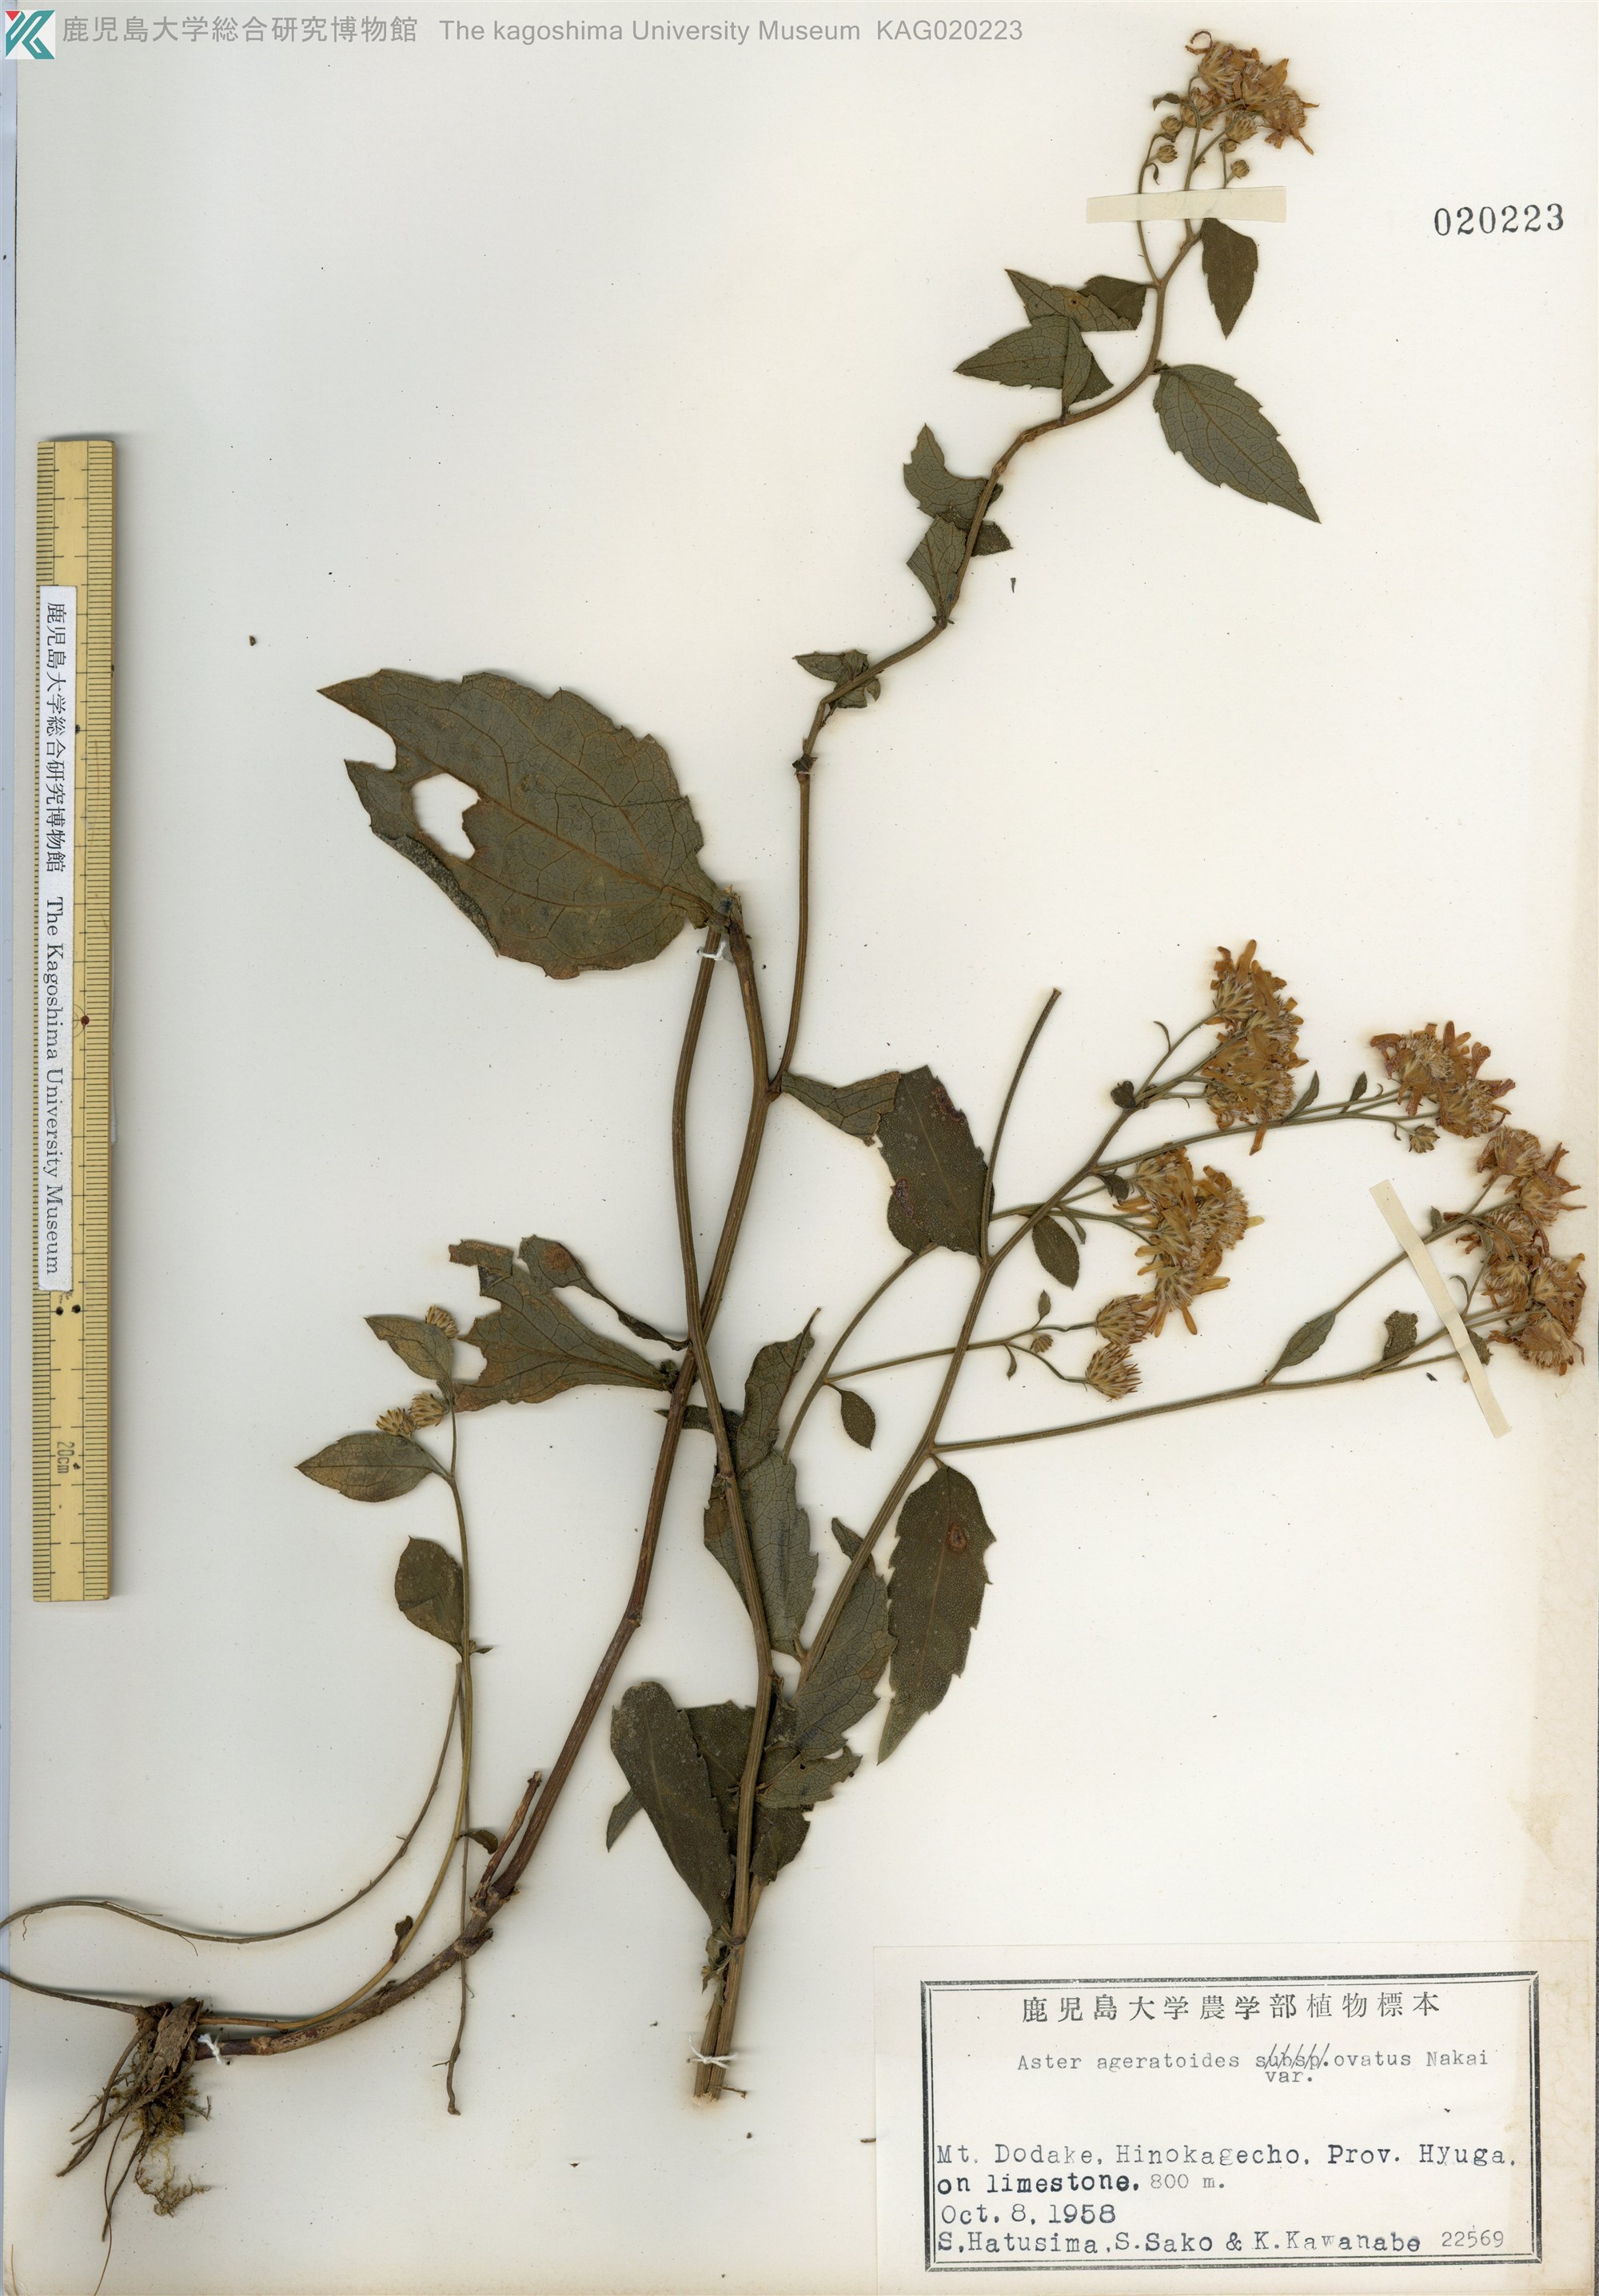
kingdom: Plantae
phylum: Tracheophyta
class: Magnoliopsida
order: Asterales
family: Asteraceae
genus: Aster
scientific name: Aster microcephalus
